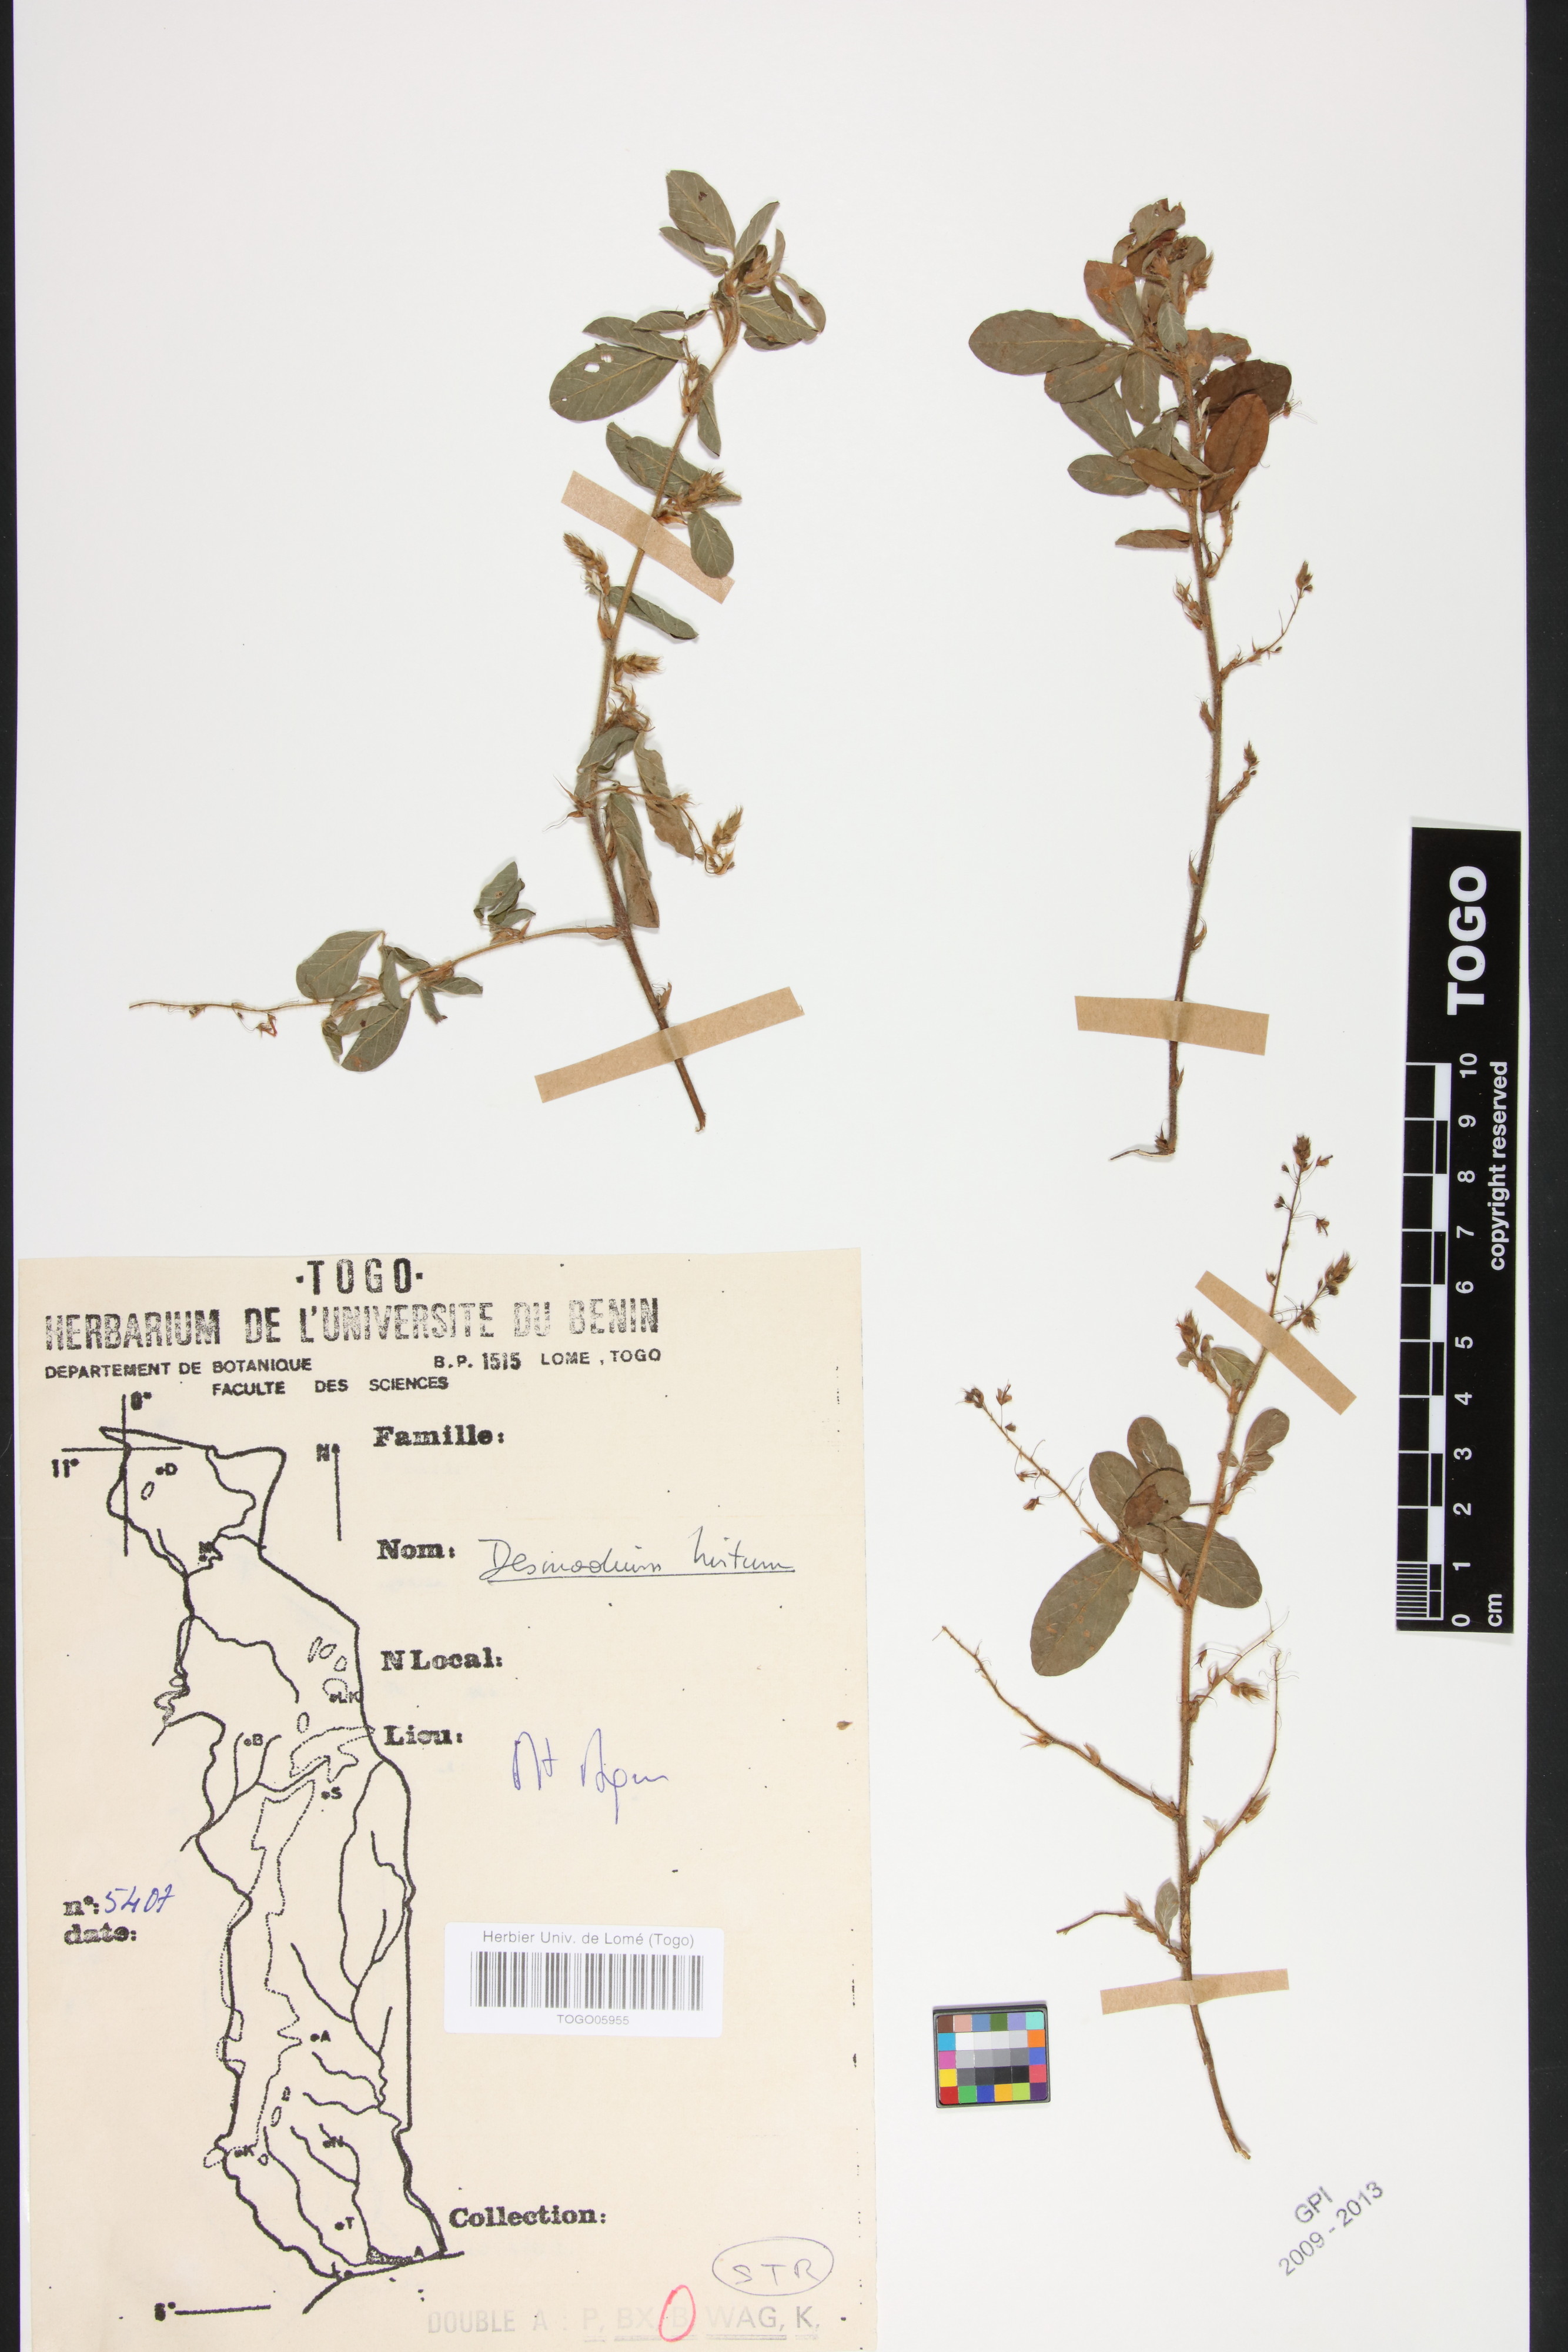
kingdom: Plantae
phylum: Tracheophyta
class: Magnoliopsida
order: Fabales
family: Fabaceae
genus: Grona
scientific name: Grona hirta
